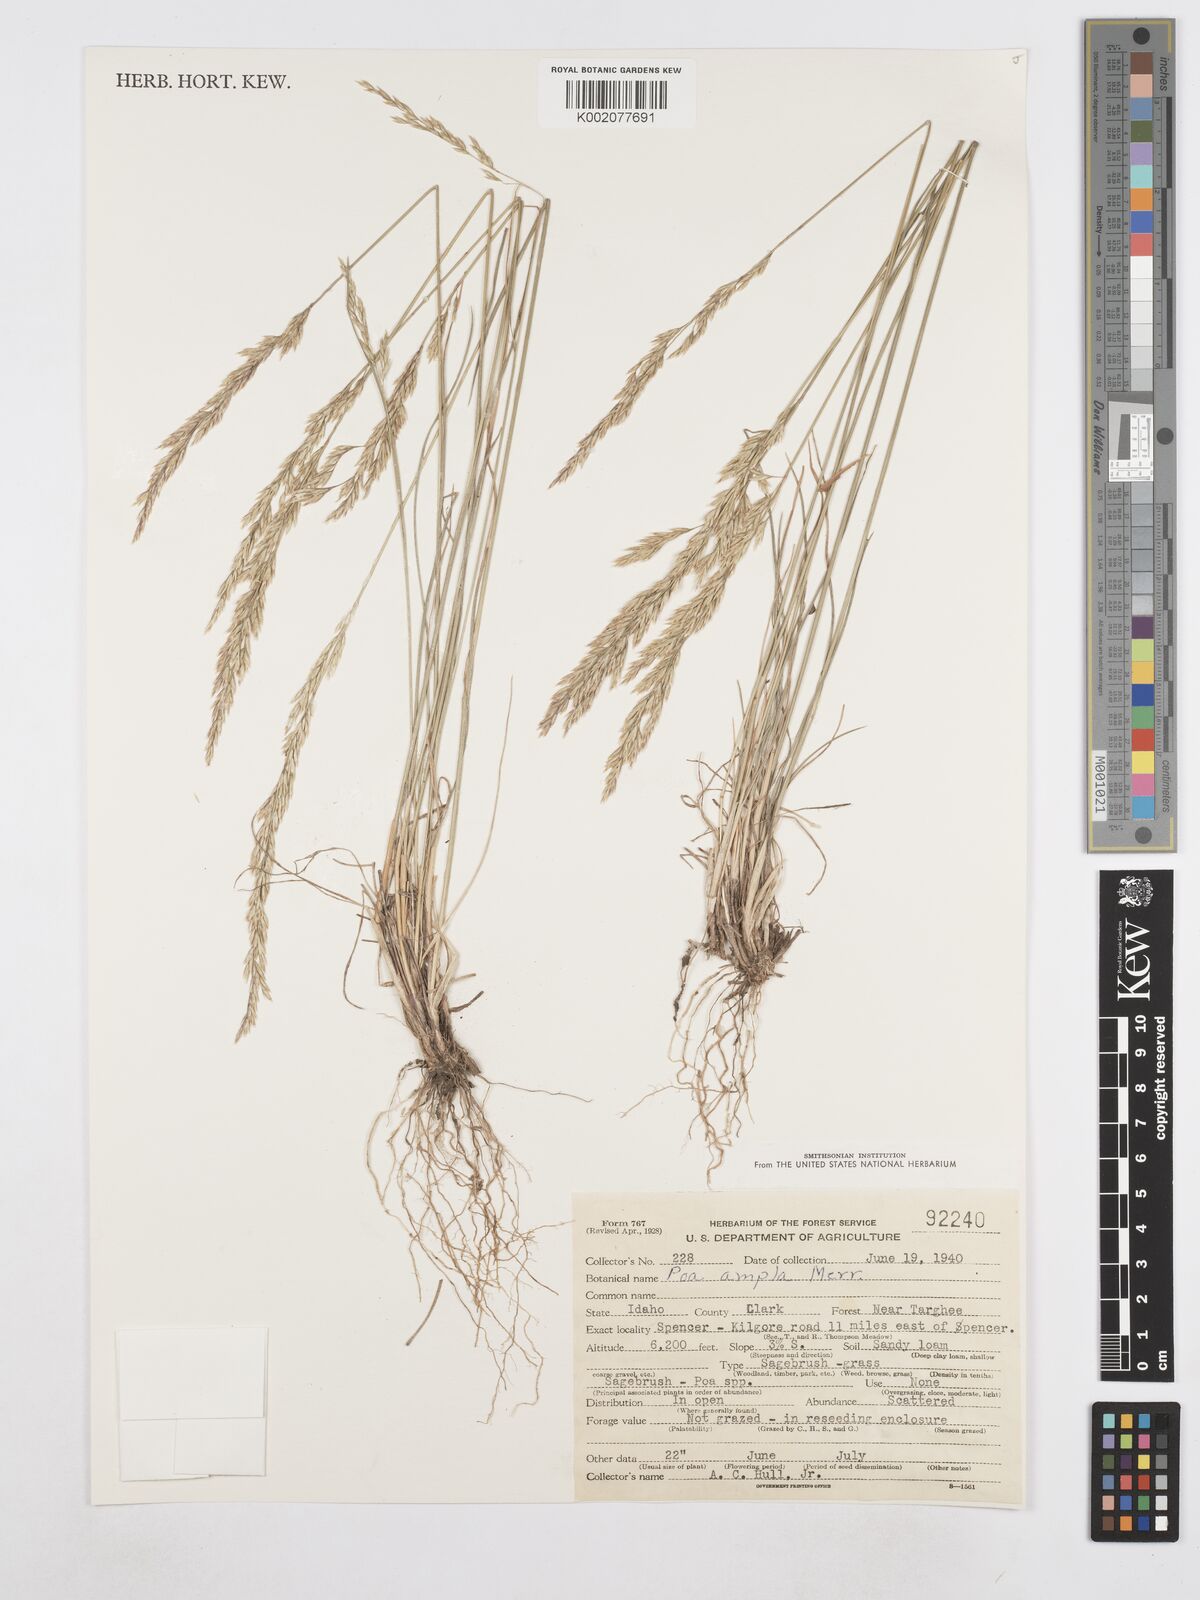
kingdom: Plantae
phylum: Tracheophyta
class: Liliopsida
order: Poales
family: Poaceae
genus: Poa
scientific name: Poa secunda
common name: Sandberg bluegrass
